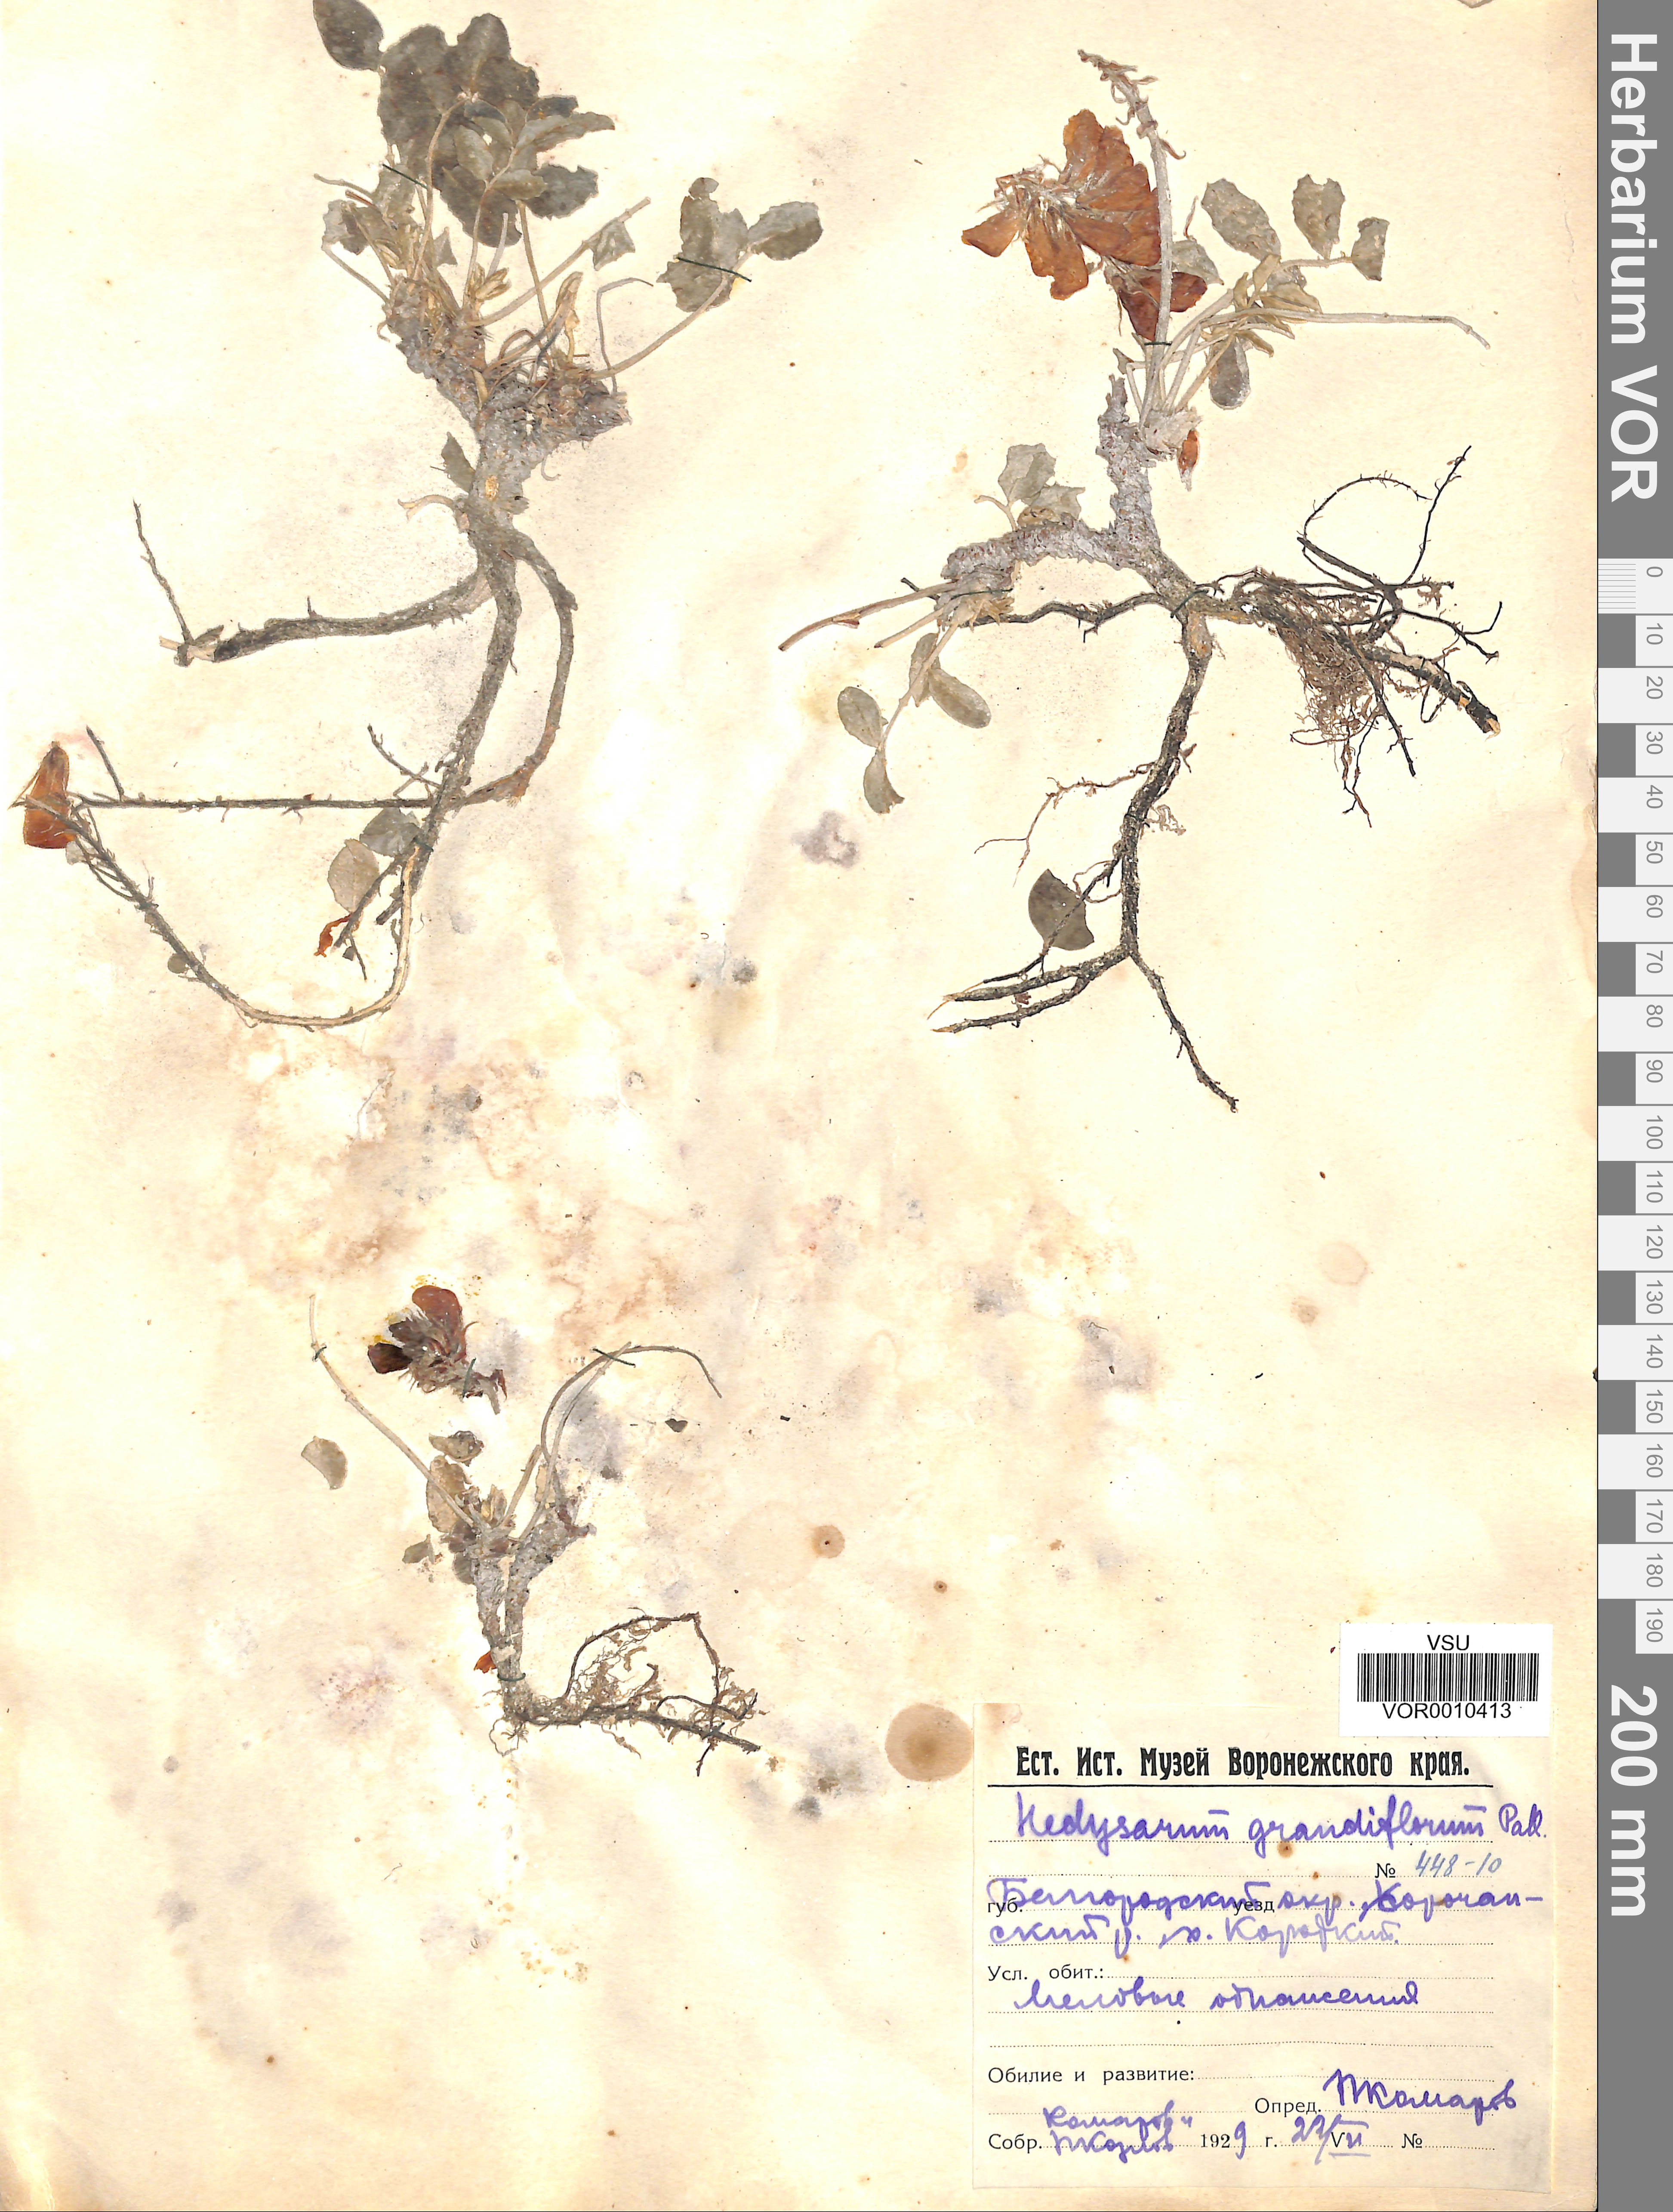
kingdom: Plantae
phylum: Tracheophyta
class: Magnoliopsida
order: Fabales
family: Fabaceae
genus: Hedysarum
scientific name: Hedysarum grandiflorum
